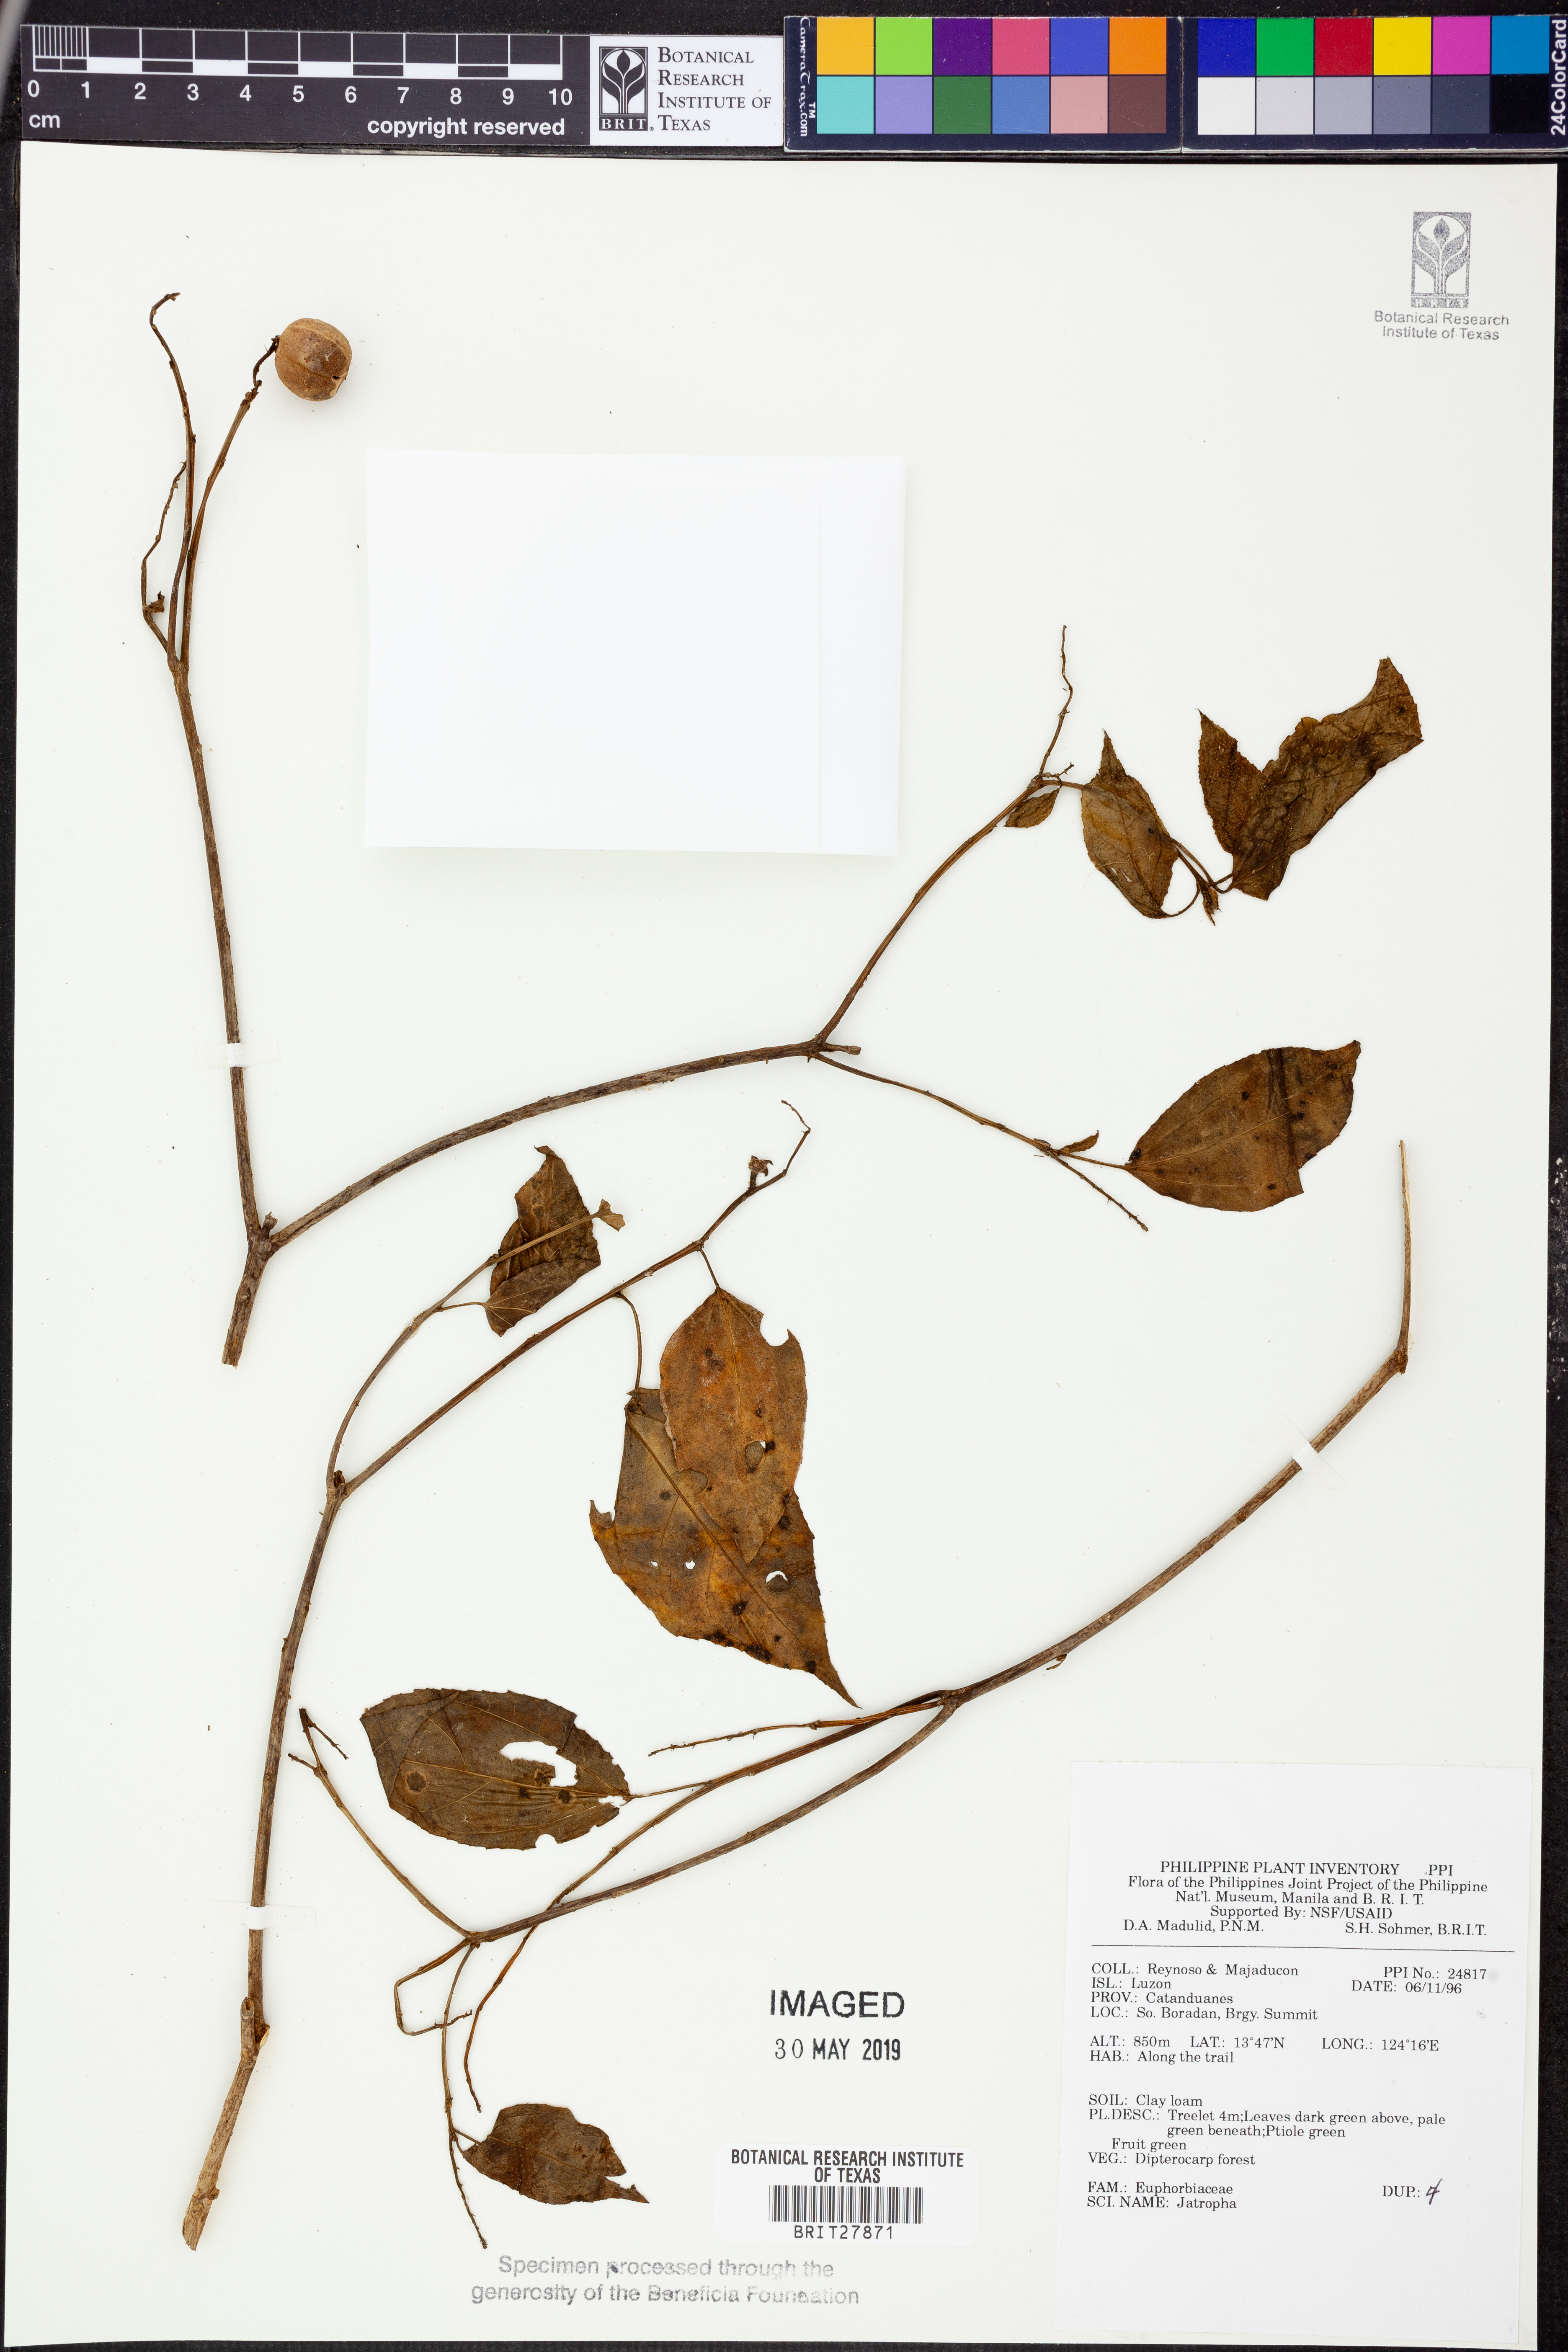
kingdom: Plantae
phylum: Tracheophyta
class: Magnoliopsida
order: Malpighiales
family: Euphorbiaceae
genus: Jatropha
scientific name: Jatropha
